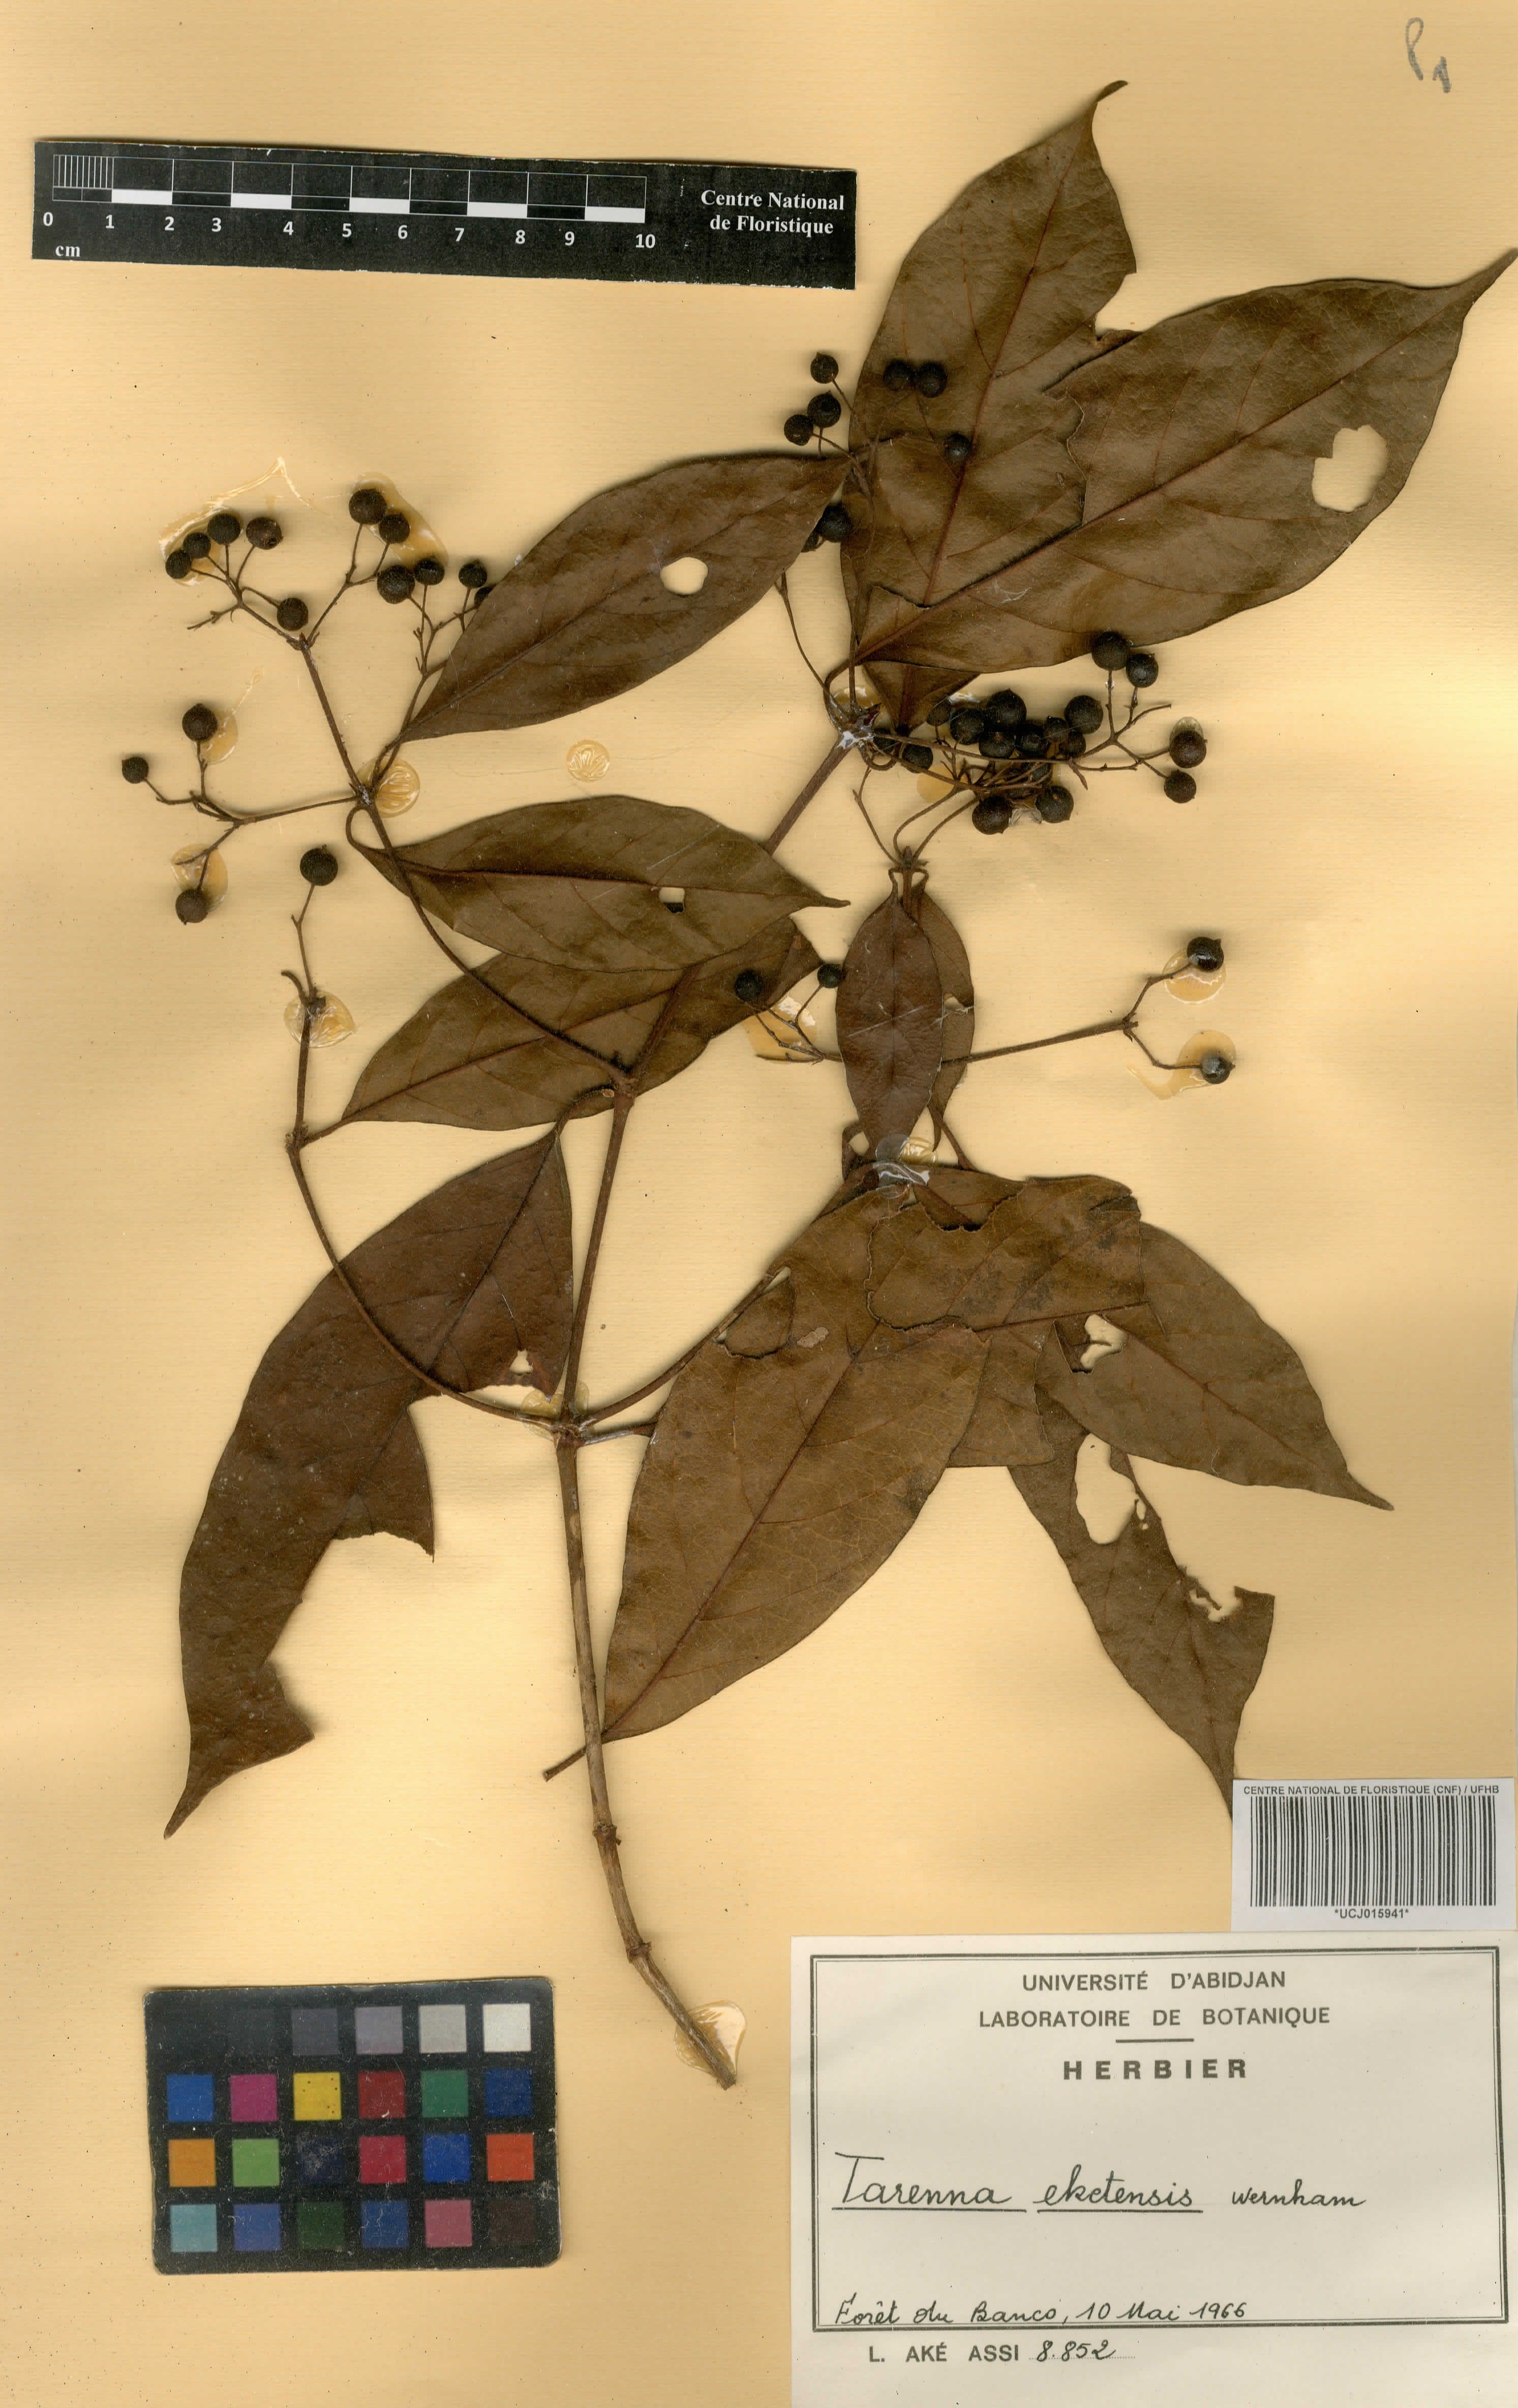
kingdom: Plantae
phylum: Tracheophyta
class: Magnoliopsida
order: Gentianales
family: Rubiaceae
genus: Tarenna
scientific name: Tarenna eketensis
